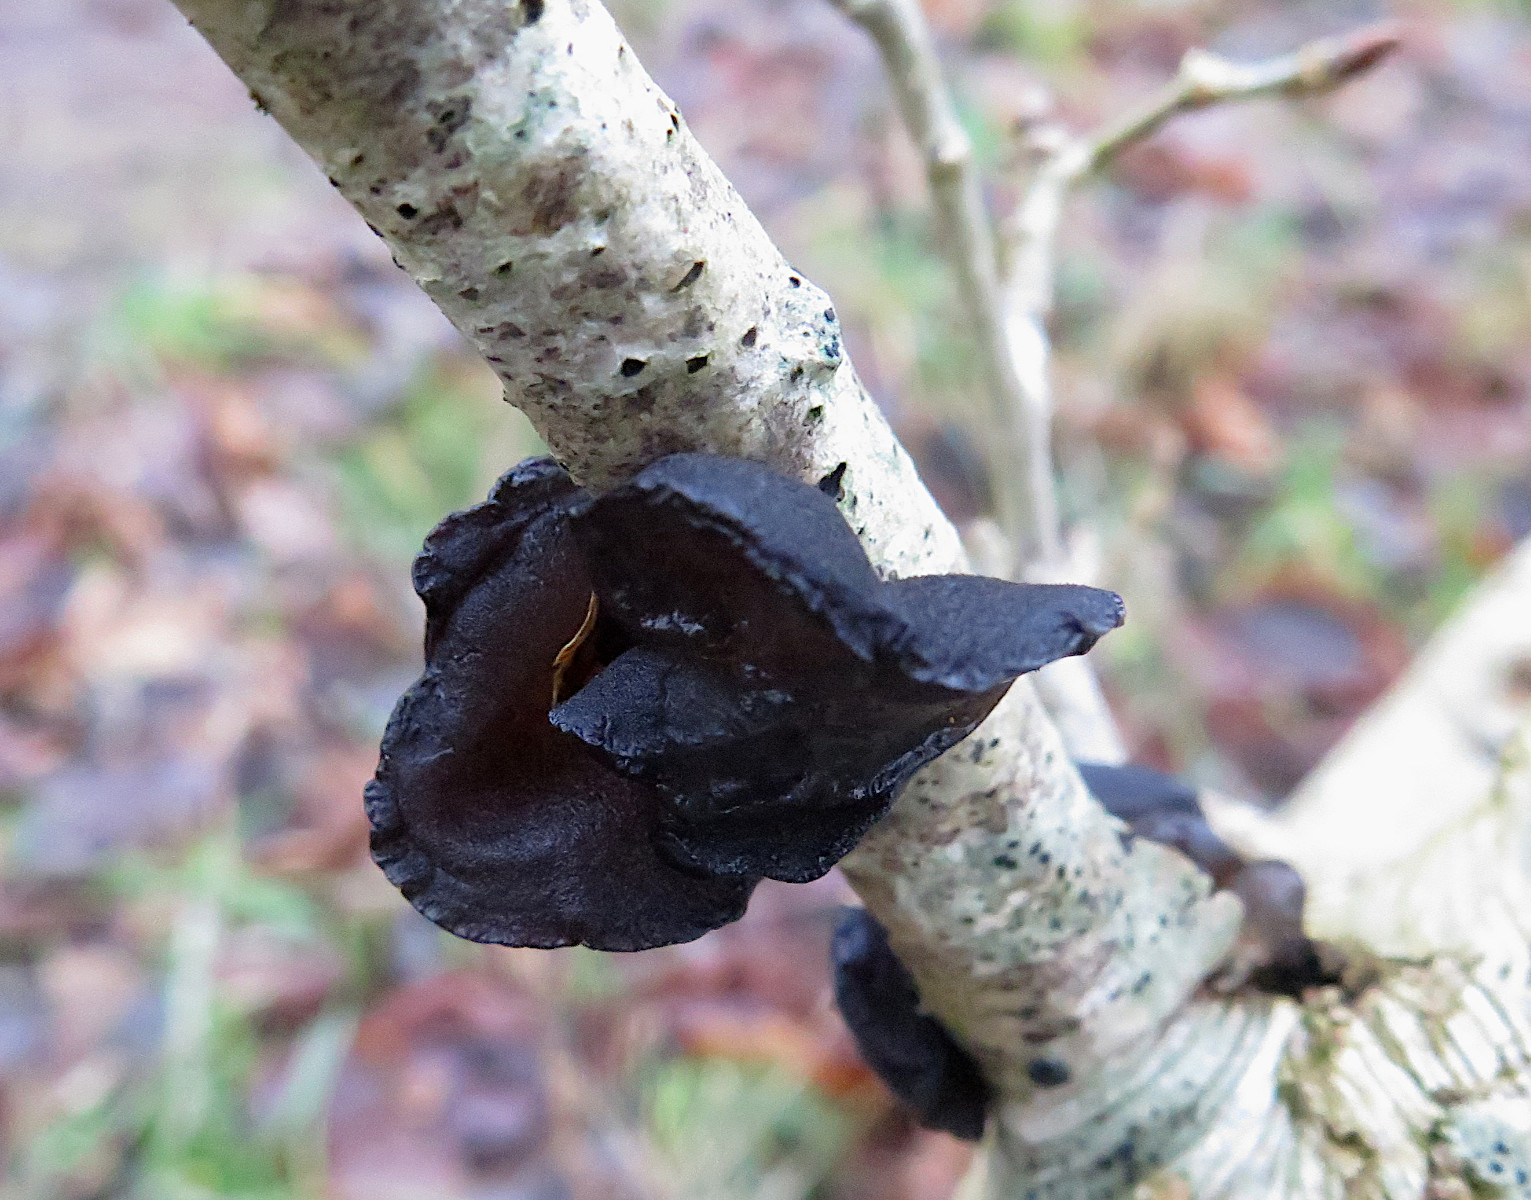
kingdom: Fungi
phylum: Basidiomycota
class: Agaricomycetes
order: Auriculariales
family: Auriculariaceae
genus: Exidia
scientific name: Exidia glandulosa
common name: ege-bævretop
